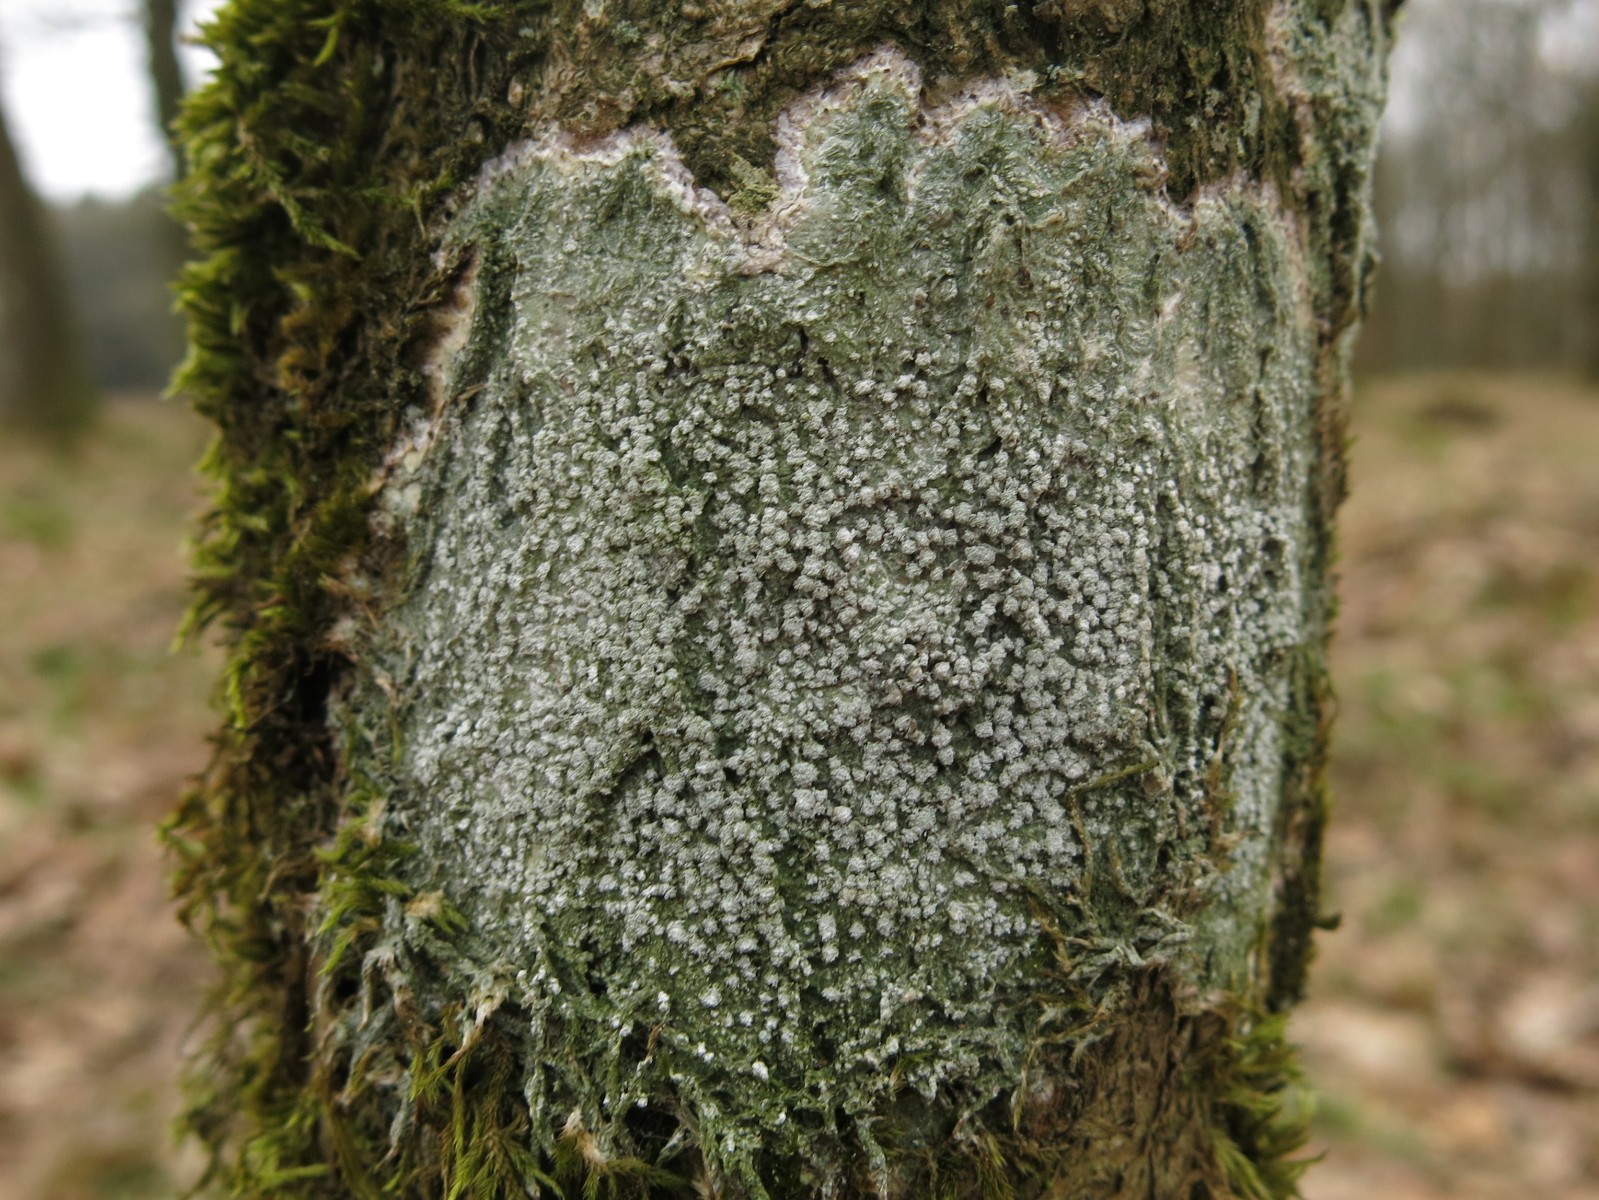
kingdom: Fungi
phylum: Ascomycota
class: Lecanoromycetes
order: Pertusariales
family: Pertusariaceae
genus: Lepra
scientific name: Lepra amara
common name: bitter prikvortelav
